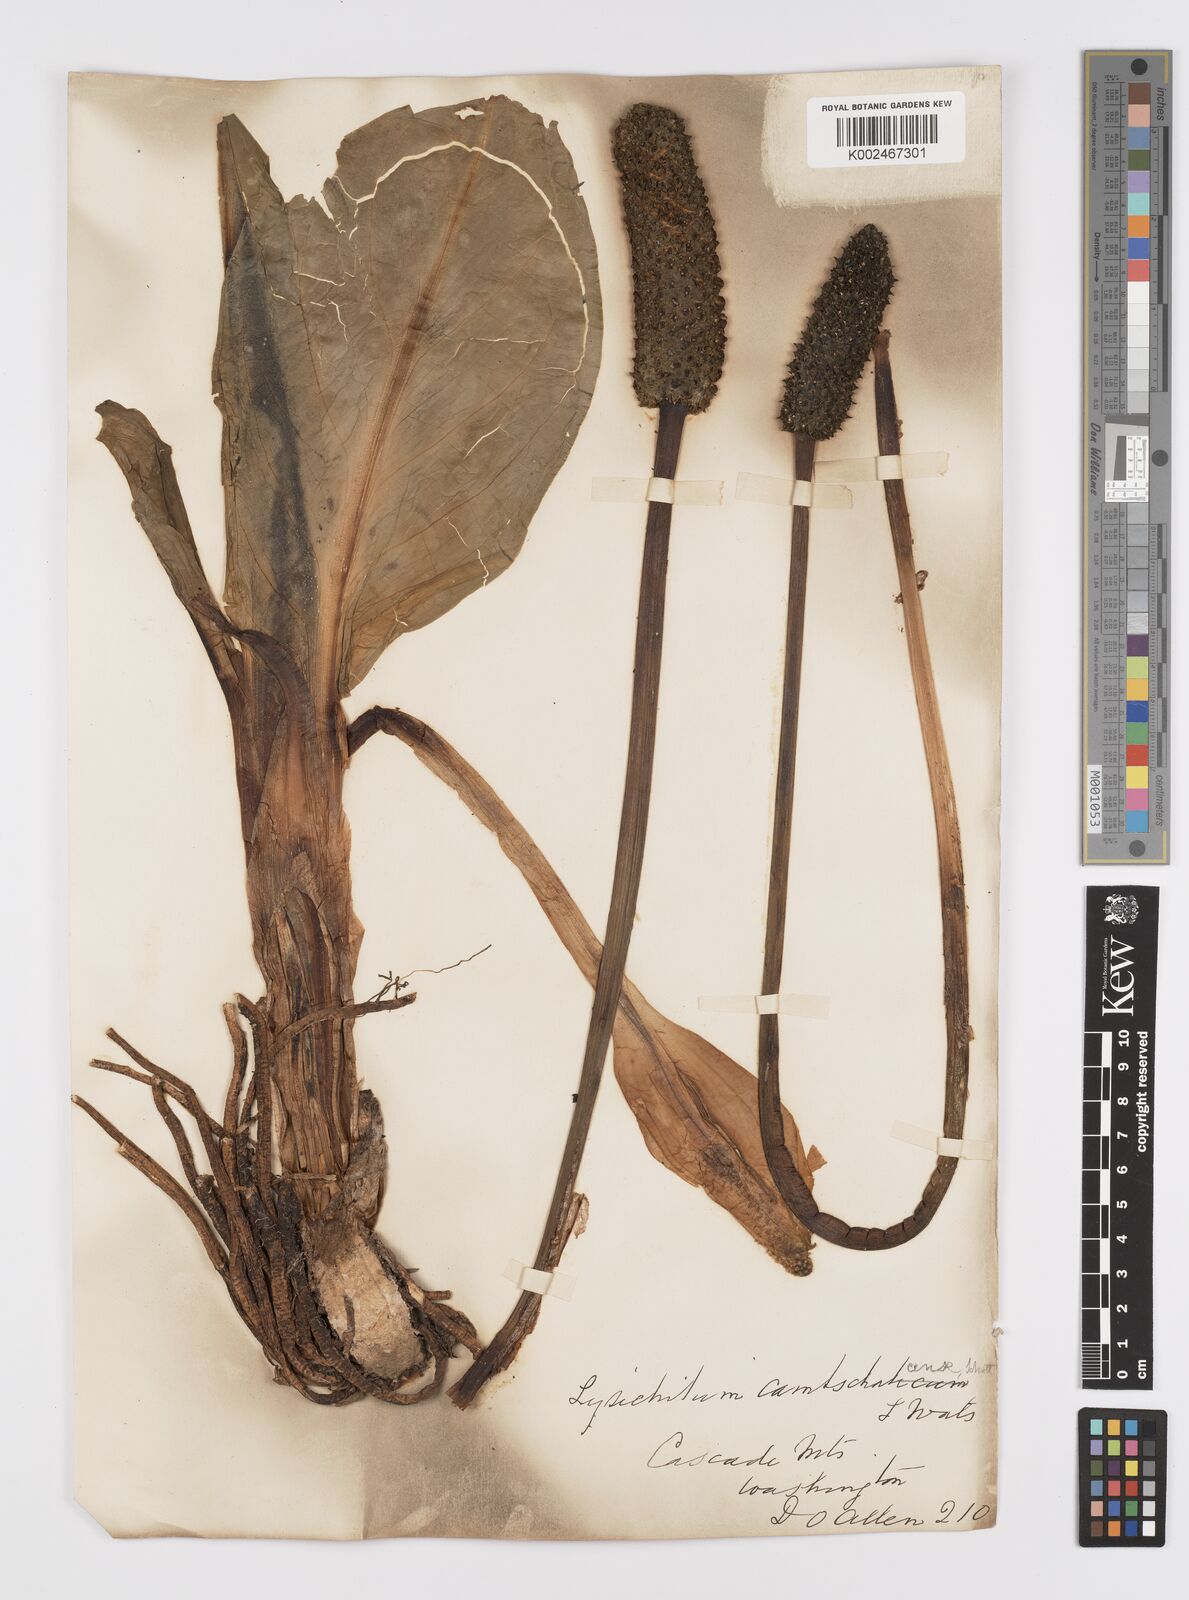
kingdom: Plantae
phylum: Tracheophyta
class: Liliopsida
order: Alismatales
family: Araceae
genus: Lysichiton
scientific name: Lysichiton americanus
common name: American skunk cabbage
